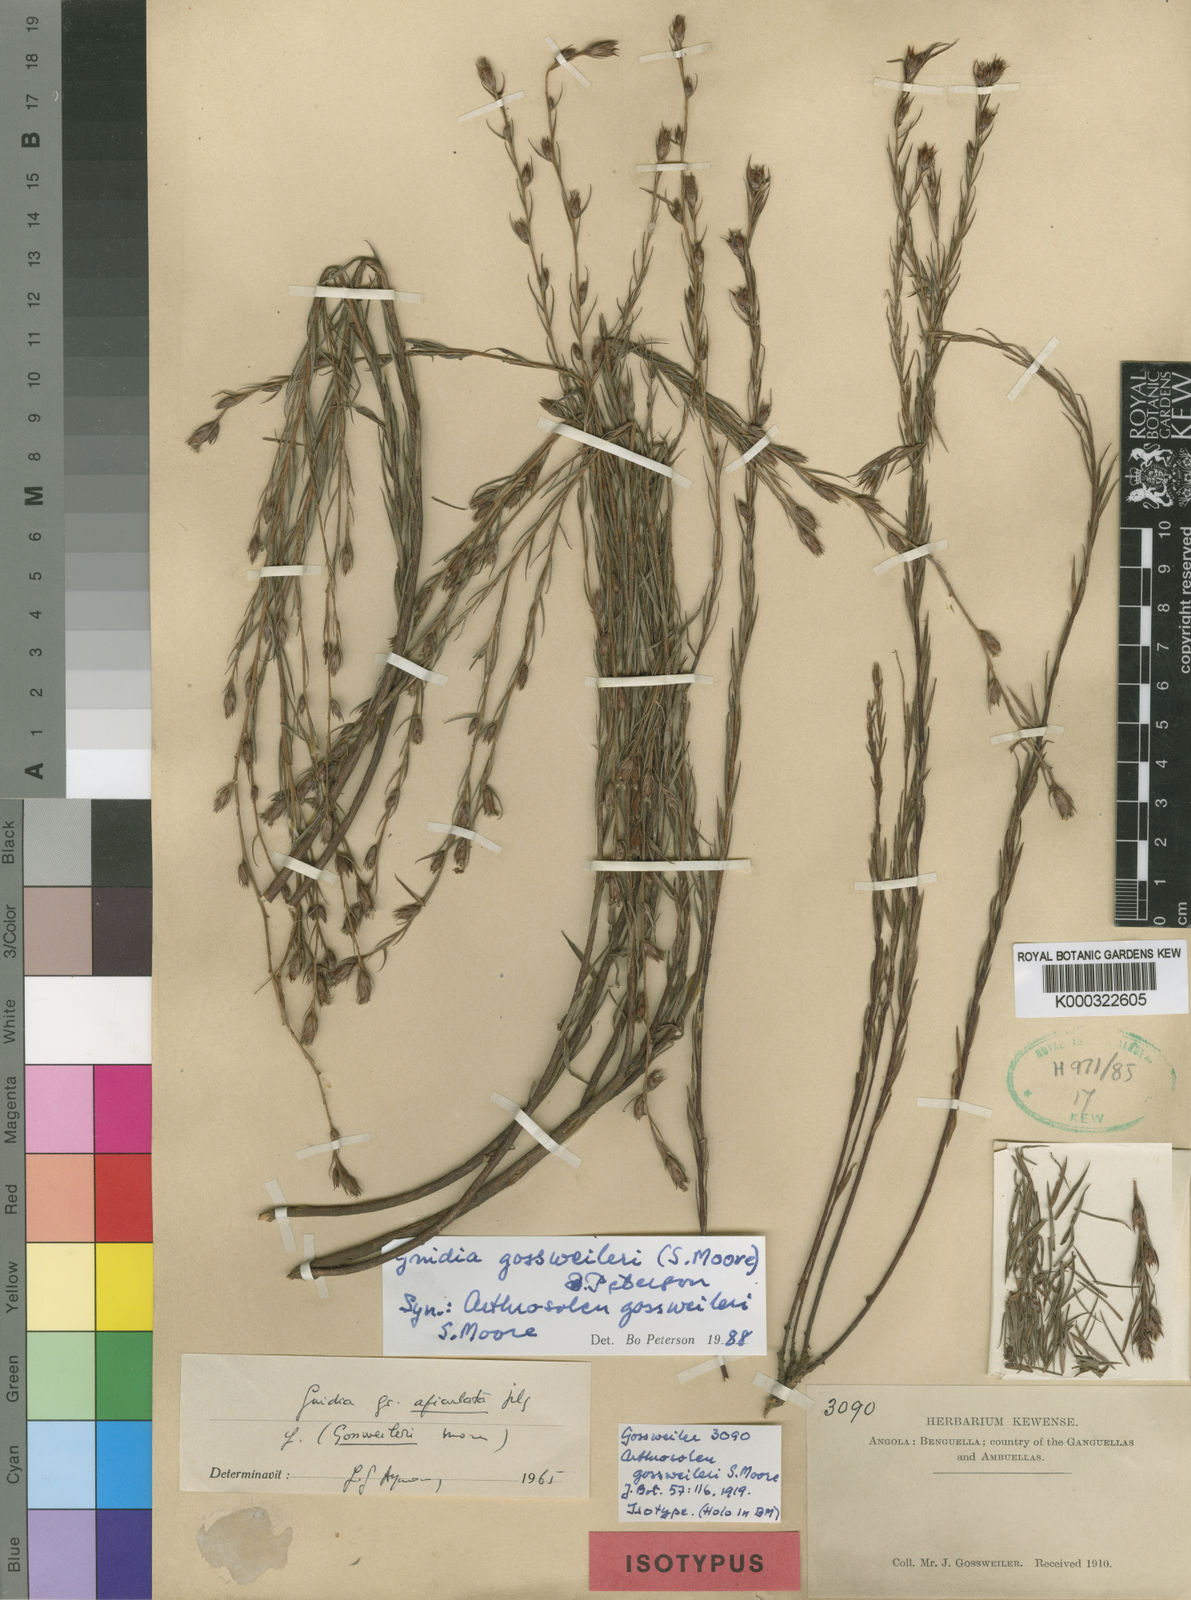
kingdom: Plantae
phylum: Tracheophyta
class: Magnoliopsida
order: Malvales
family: Thymelaeaceae
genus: Gnidia
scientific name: Gnidia gossweileri
